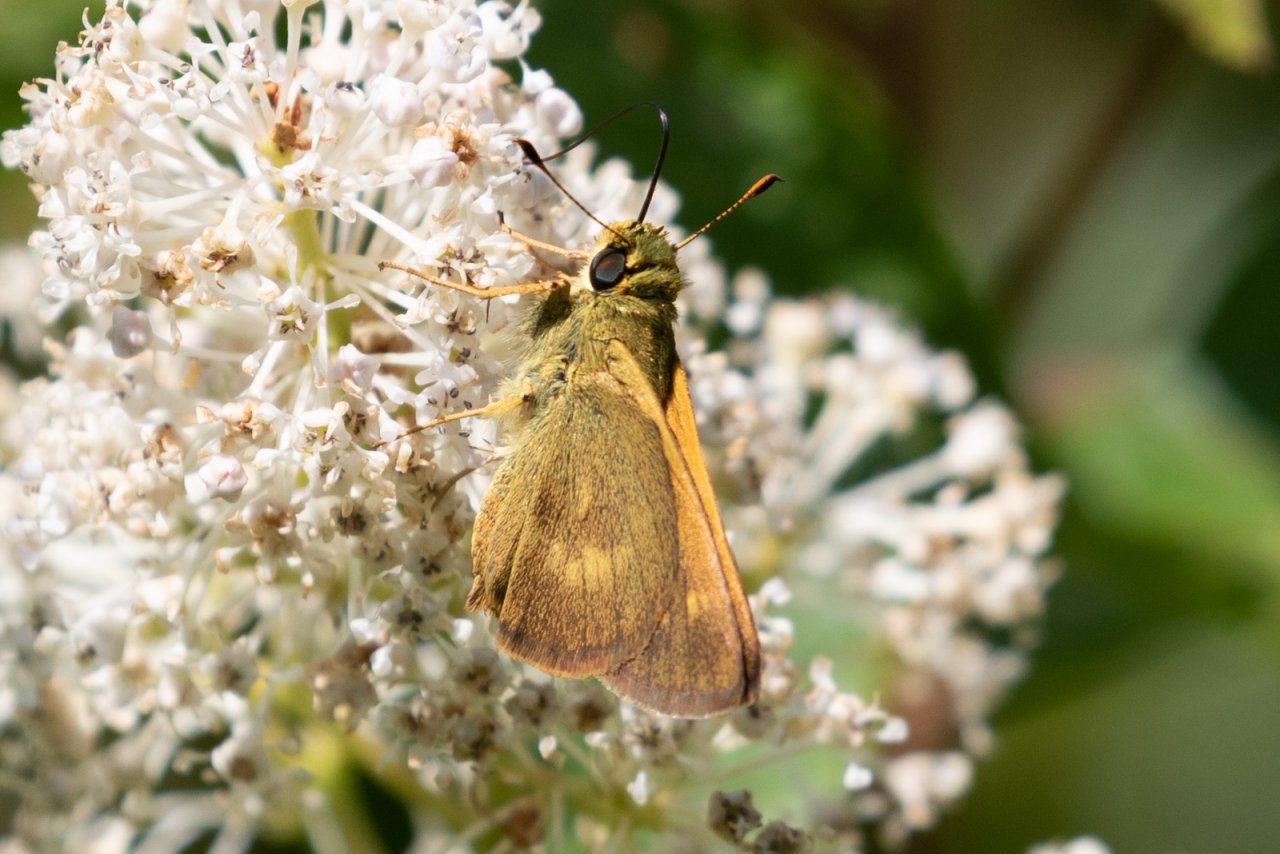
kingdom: Animalia
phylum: Arthropoda
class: Insecta
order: Lepidoptera
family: Hesperiidae
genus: Polites
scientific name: Polites egeremet
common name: Northern Broken-Dash
